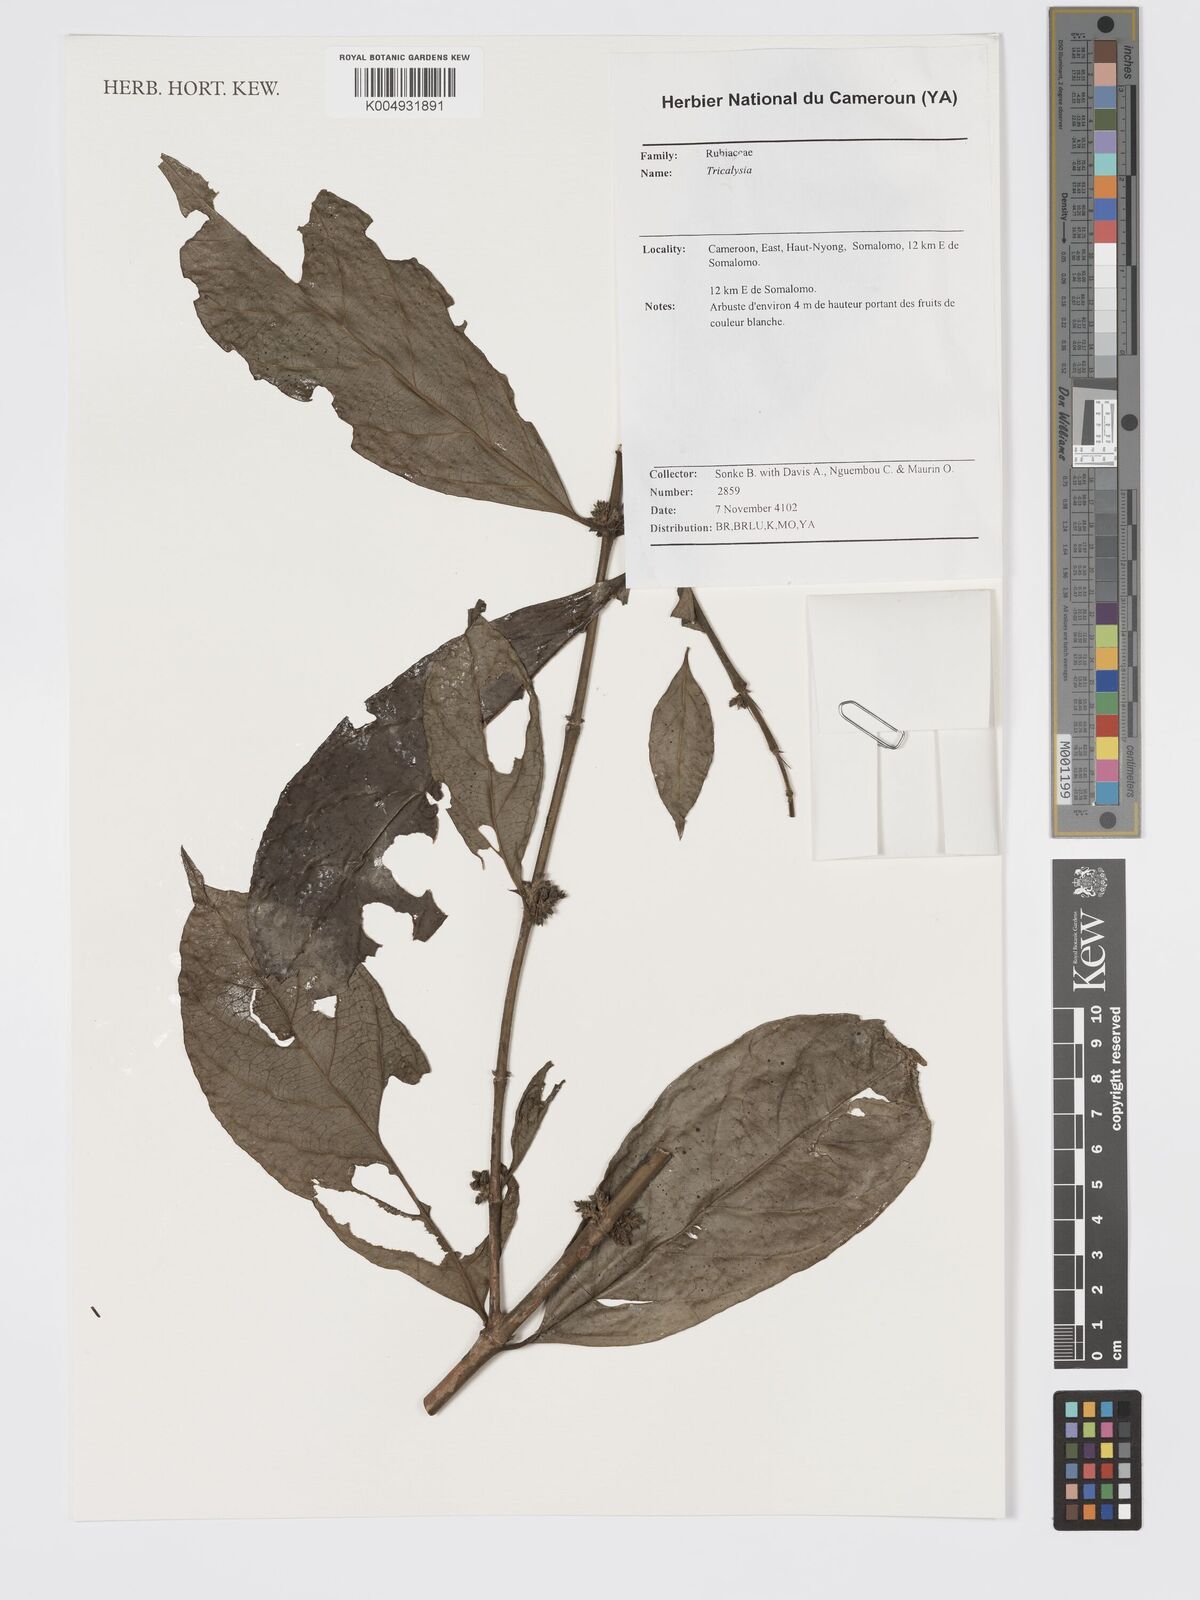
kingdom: Plantae
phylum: Tracheophyta
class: Magnoliopsida
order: Gentianales
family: Rubiaceae
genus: Tricalysia
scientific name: Tricalysia
